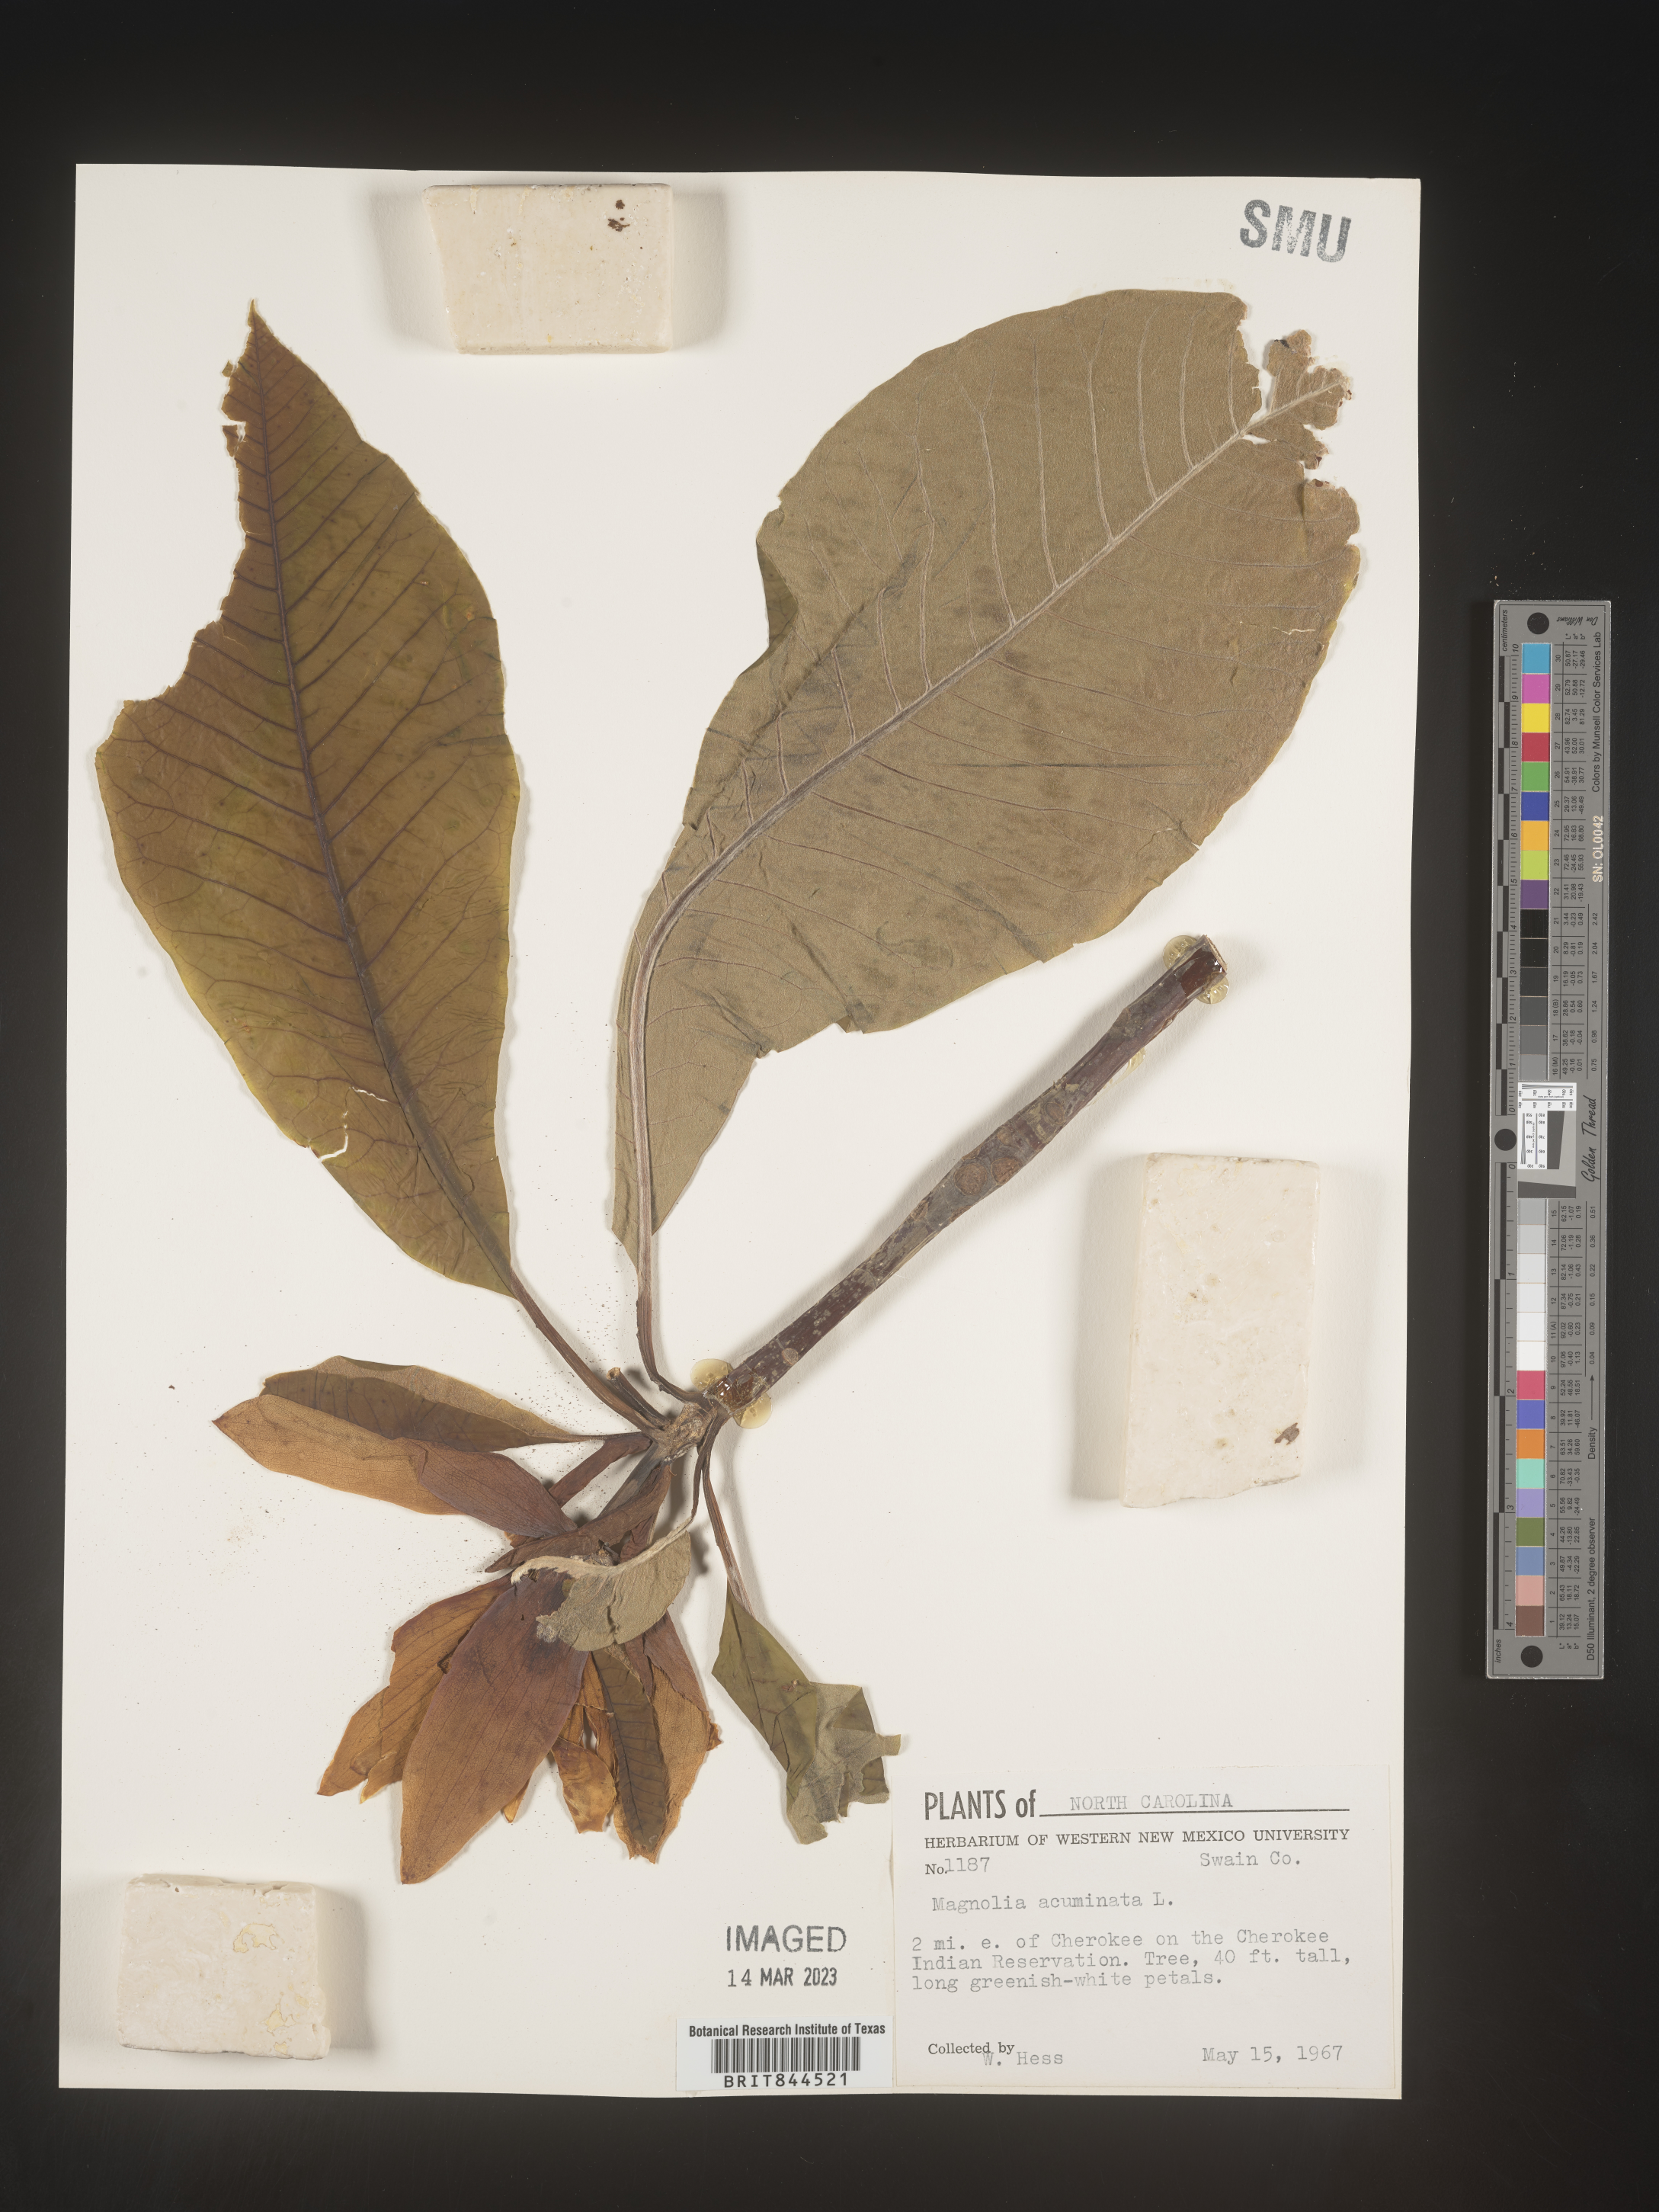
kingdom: Plantae
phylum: Tracheophyta
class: Magnoliopsida
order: Magnoliales
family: Magnoliaceae
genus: Magnolia
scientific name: Magnolia acuminata
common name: Cucumber magnolia
